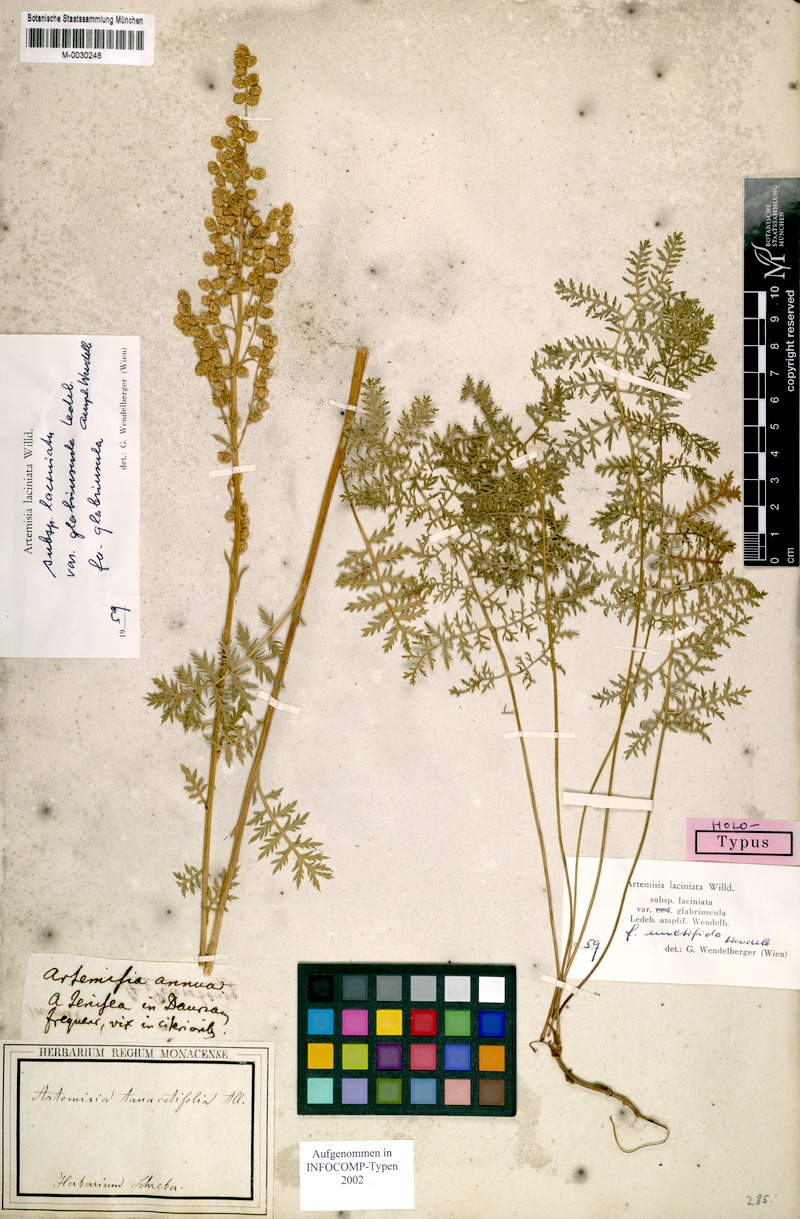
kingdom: Plantae
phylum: Tracheophyta
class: Magnoliopsida
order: Asterales
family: Asteraceae
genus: Artemisia
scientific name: Artemisia laciniata
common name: Siberian wormwood
